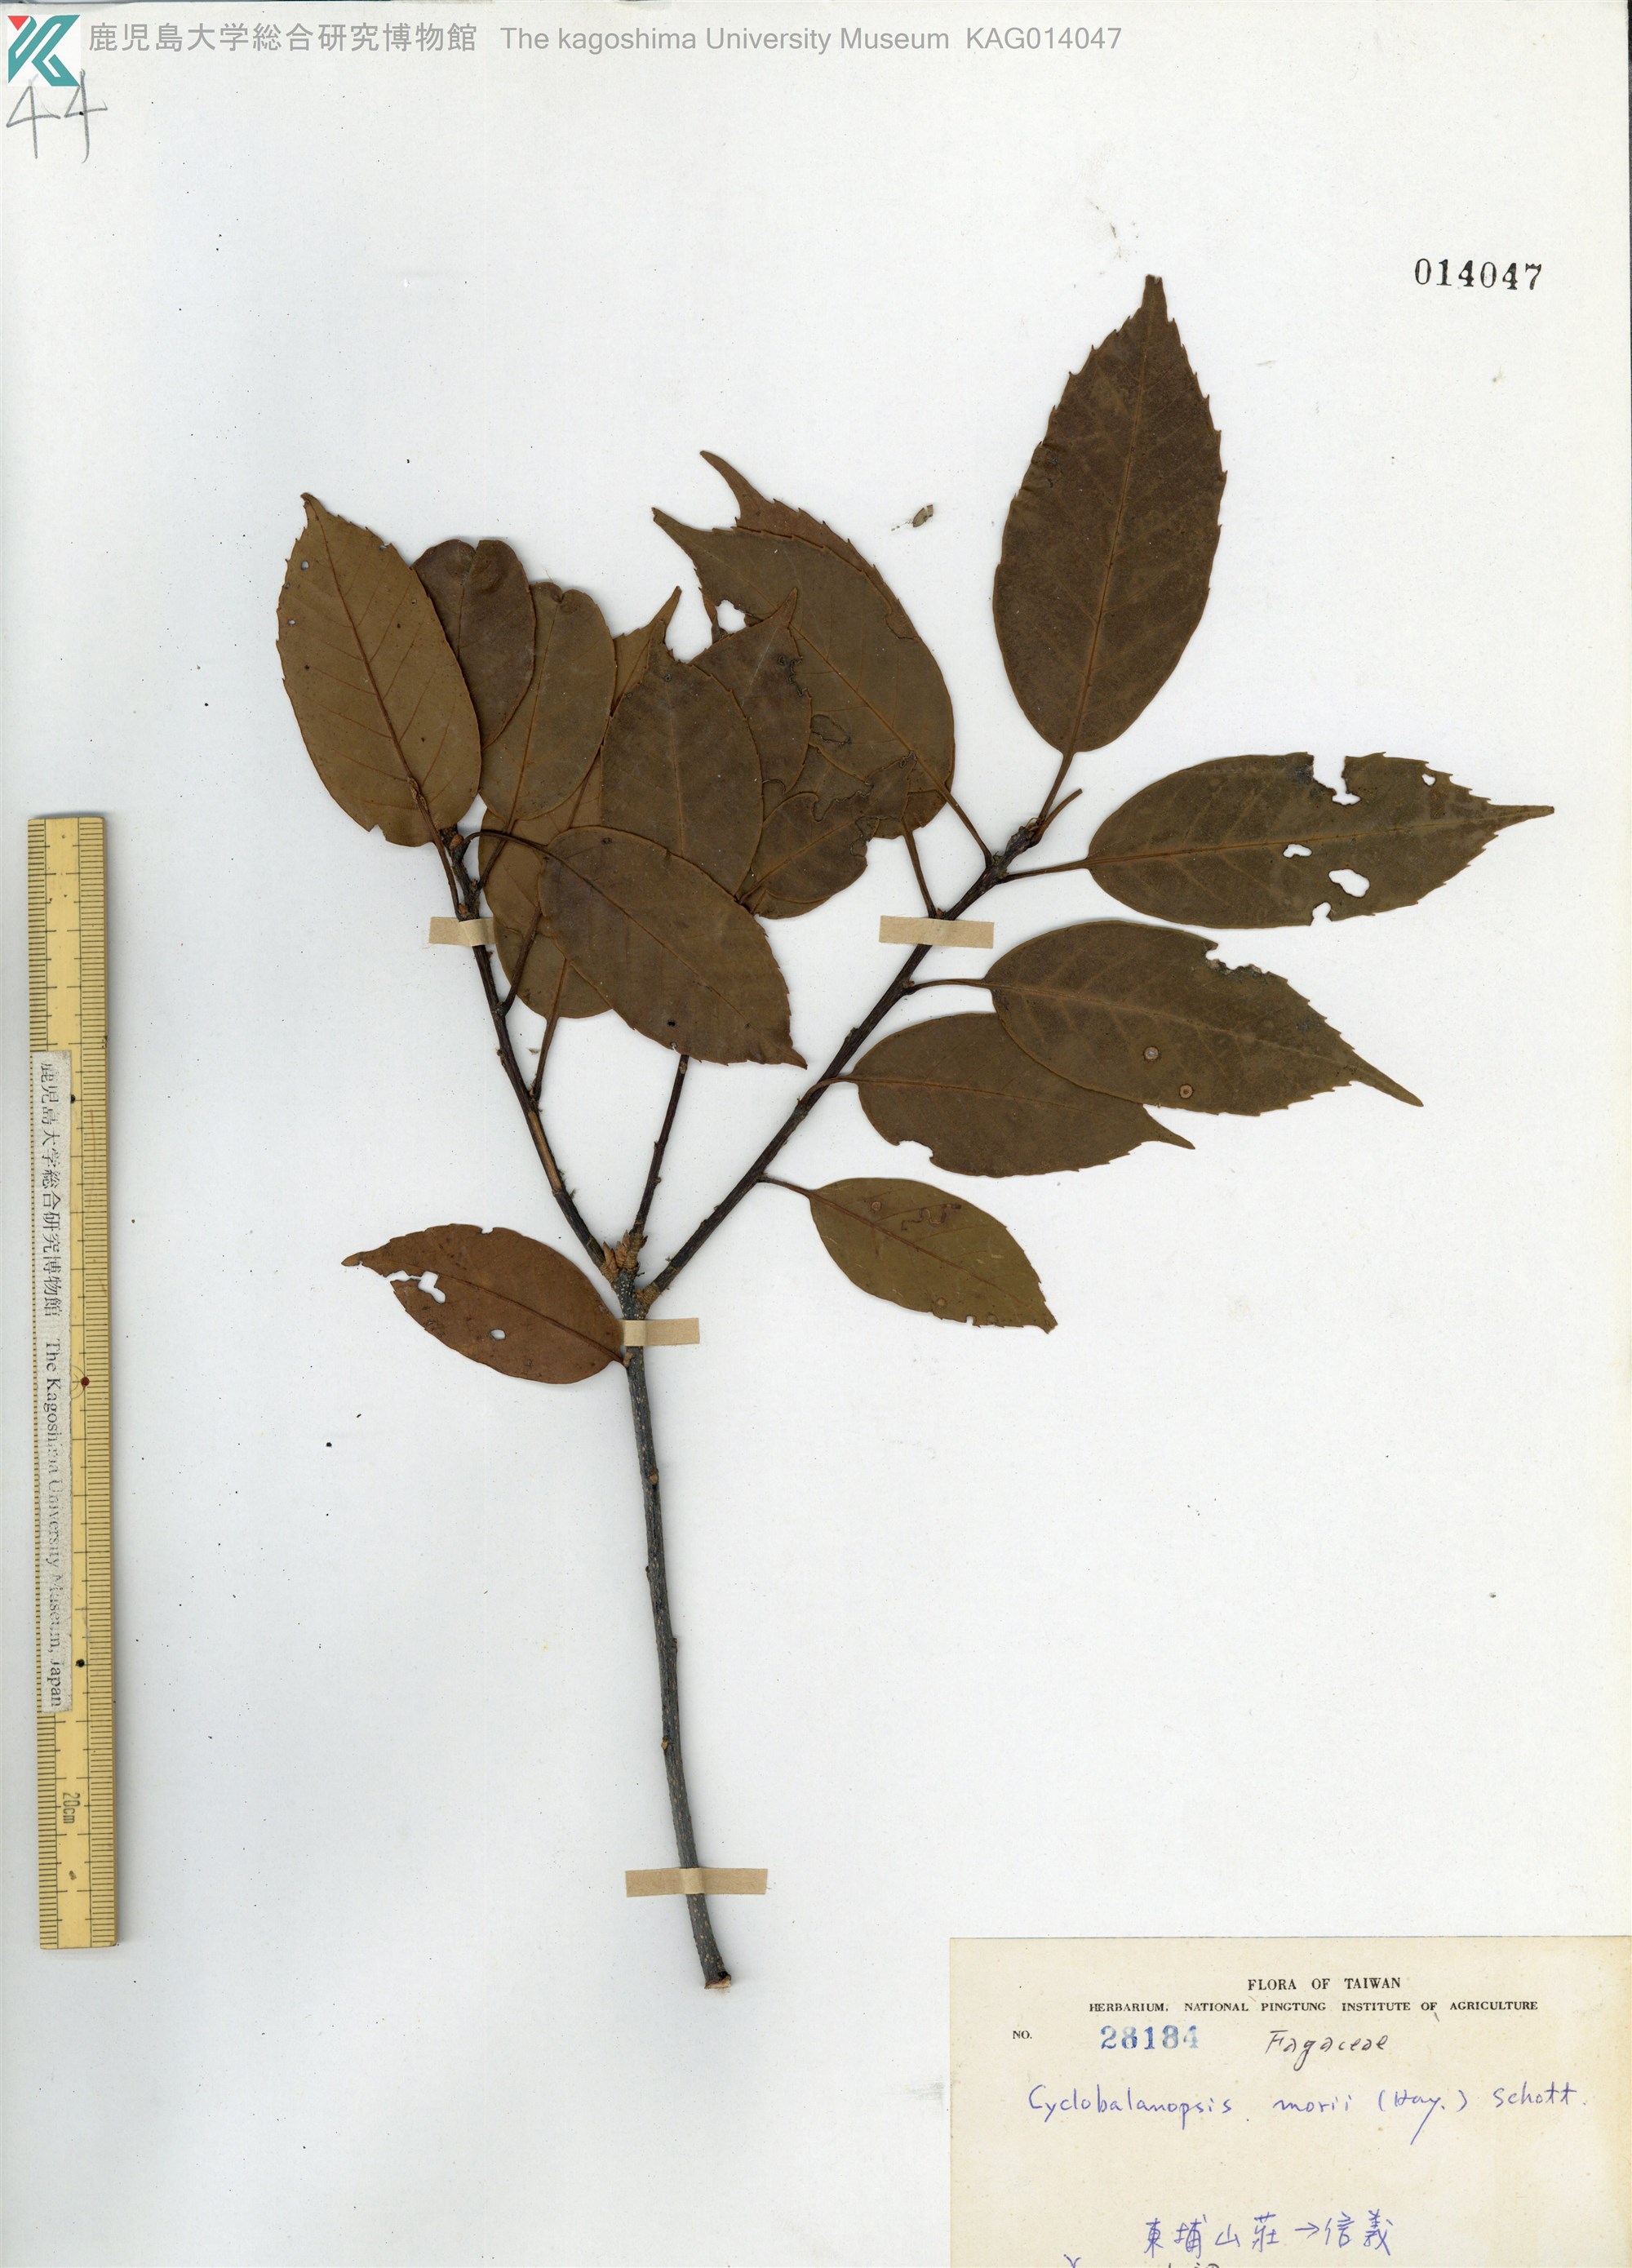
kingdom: Plantae
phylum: Tracheophyta
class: Magnoliopsida
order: Fagales
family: Fagaceae
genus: Quercus
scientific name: Quercus morii
